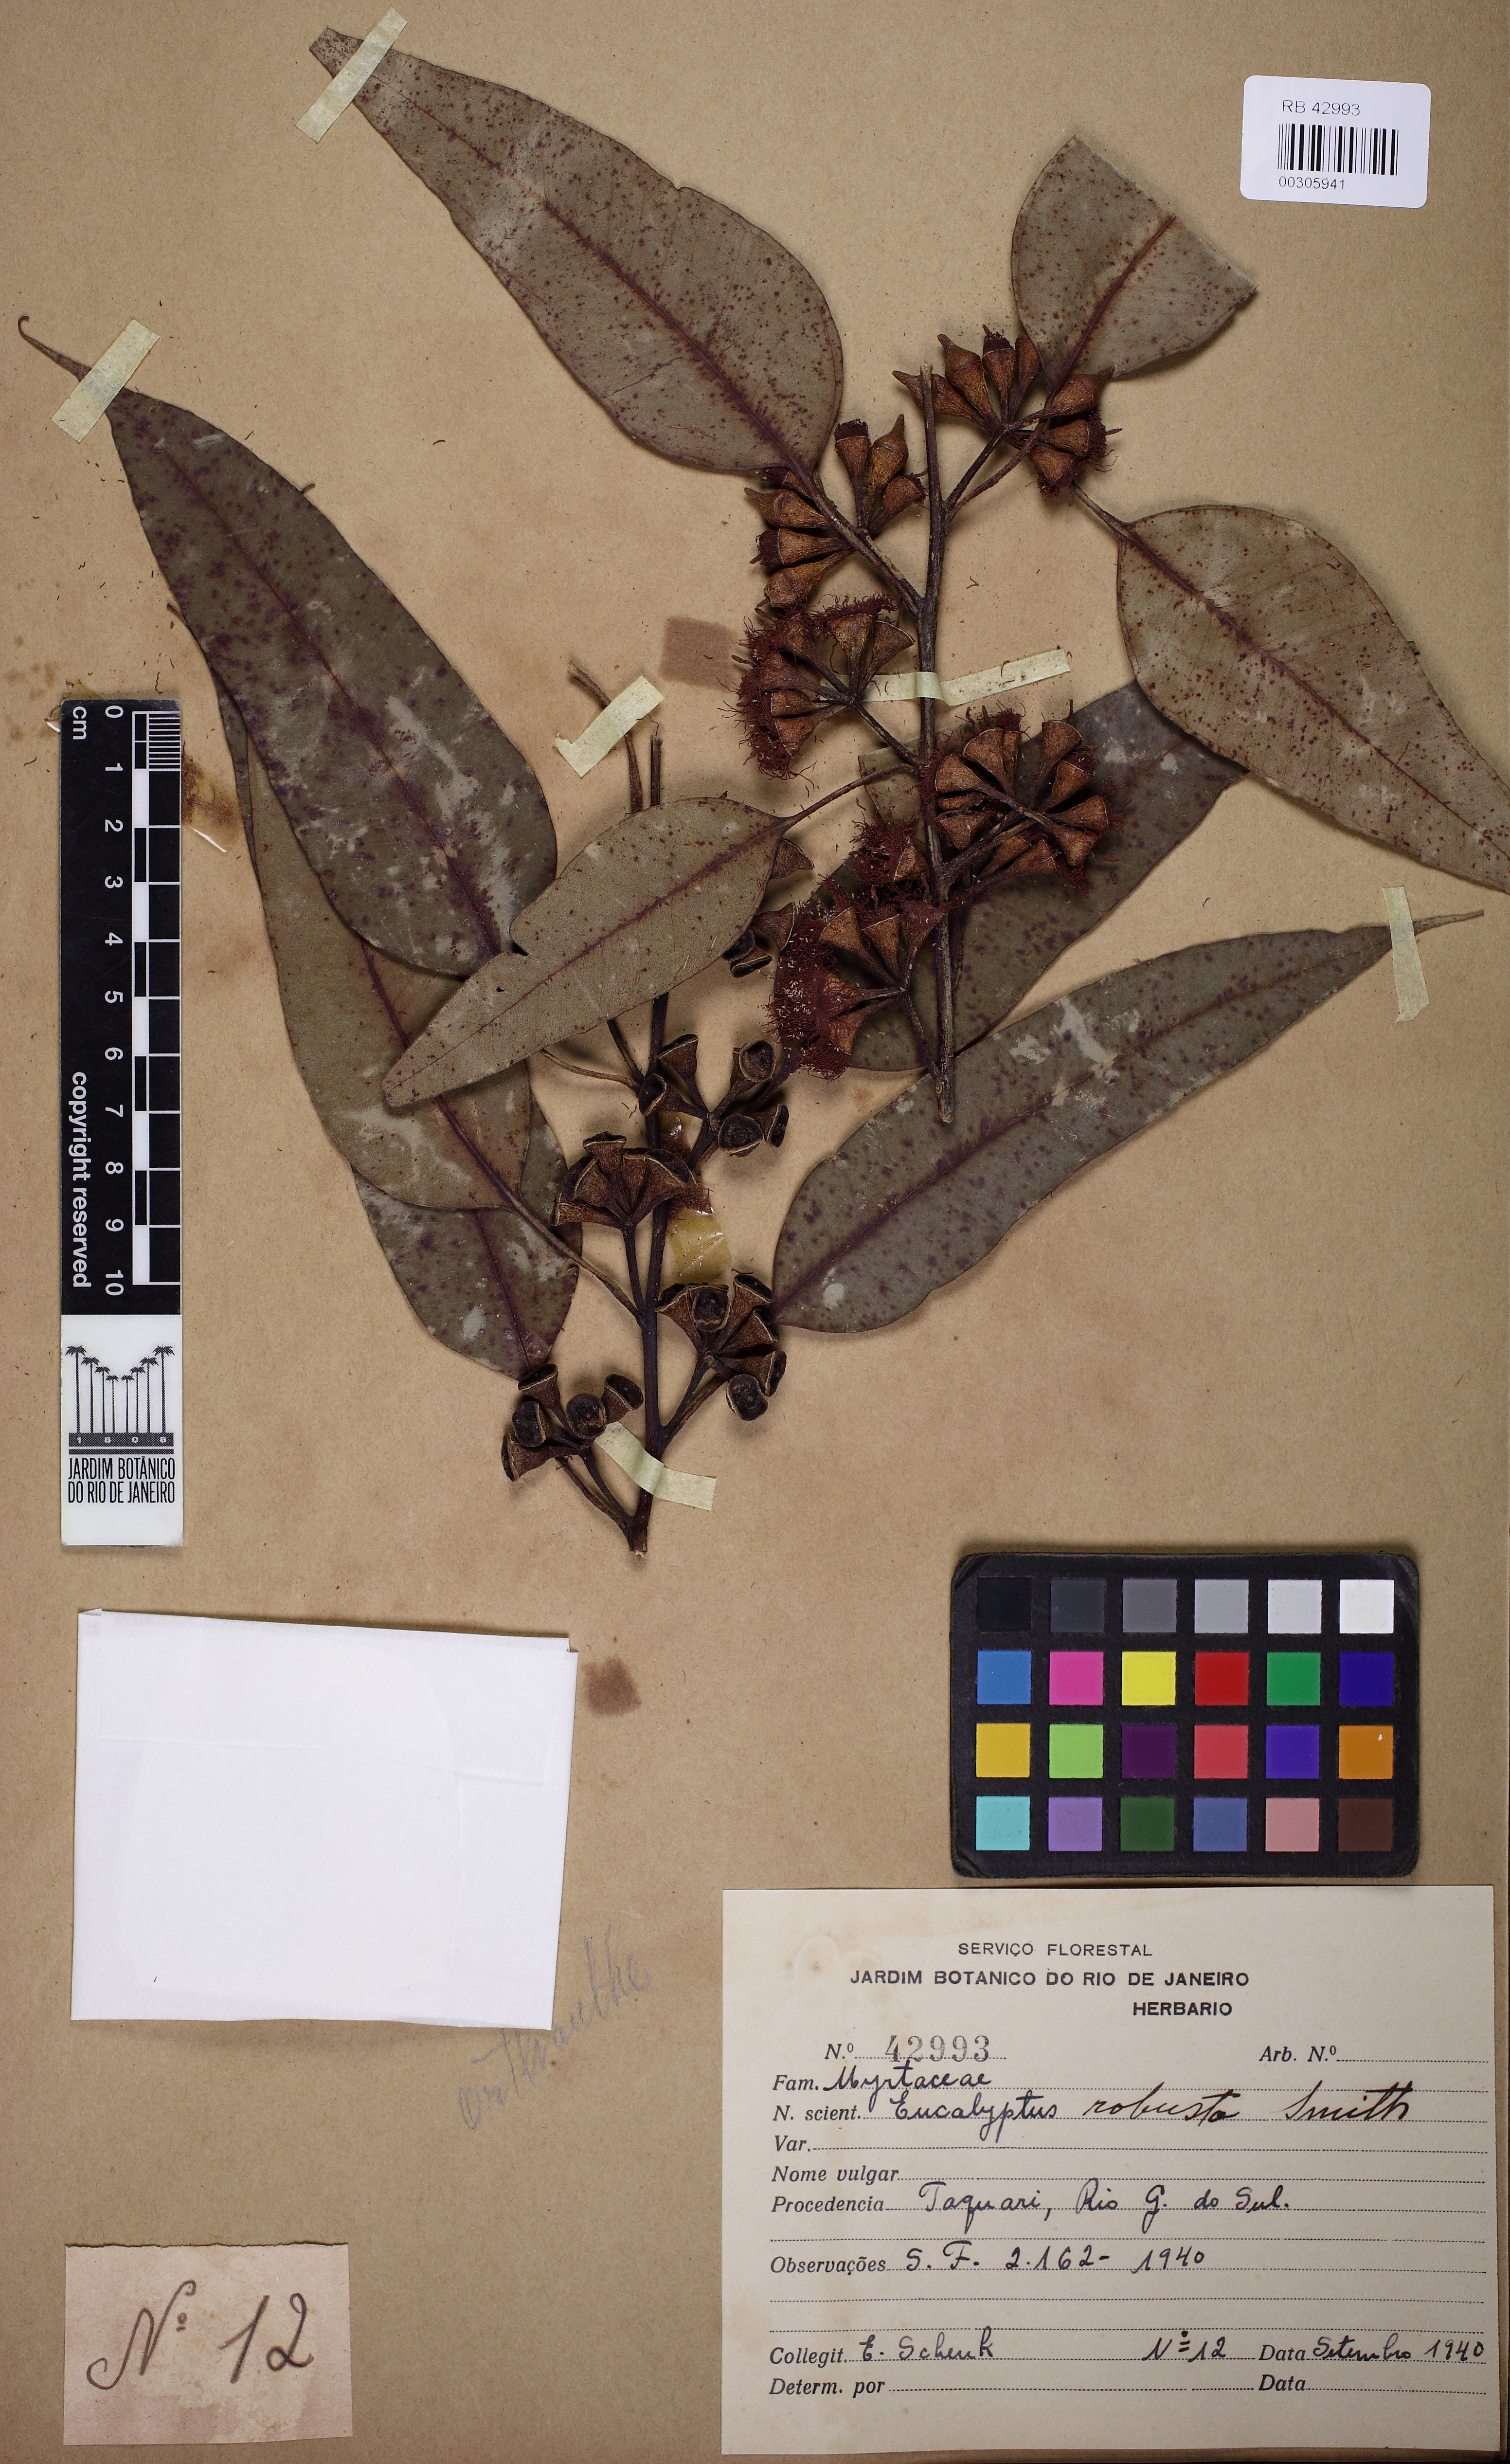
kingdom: Plantae
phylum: Tracheophyta
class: Magnoliopsida
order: Myrtales
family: Myrtaceae
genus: Eucalyptus
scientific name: Eucalyptus robusta
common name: Swampmahogany
